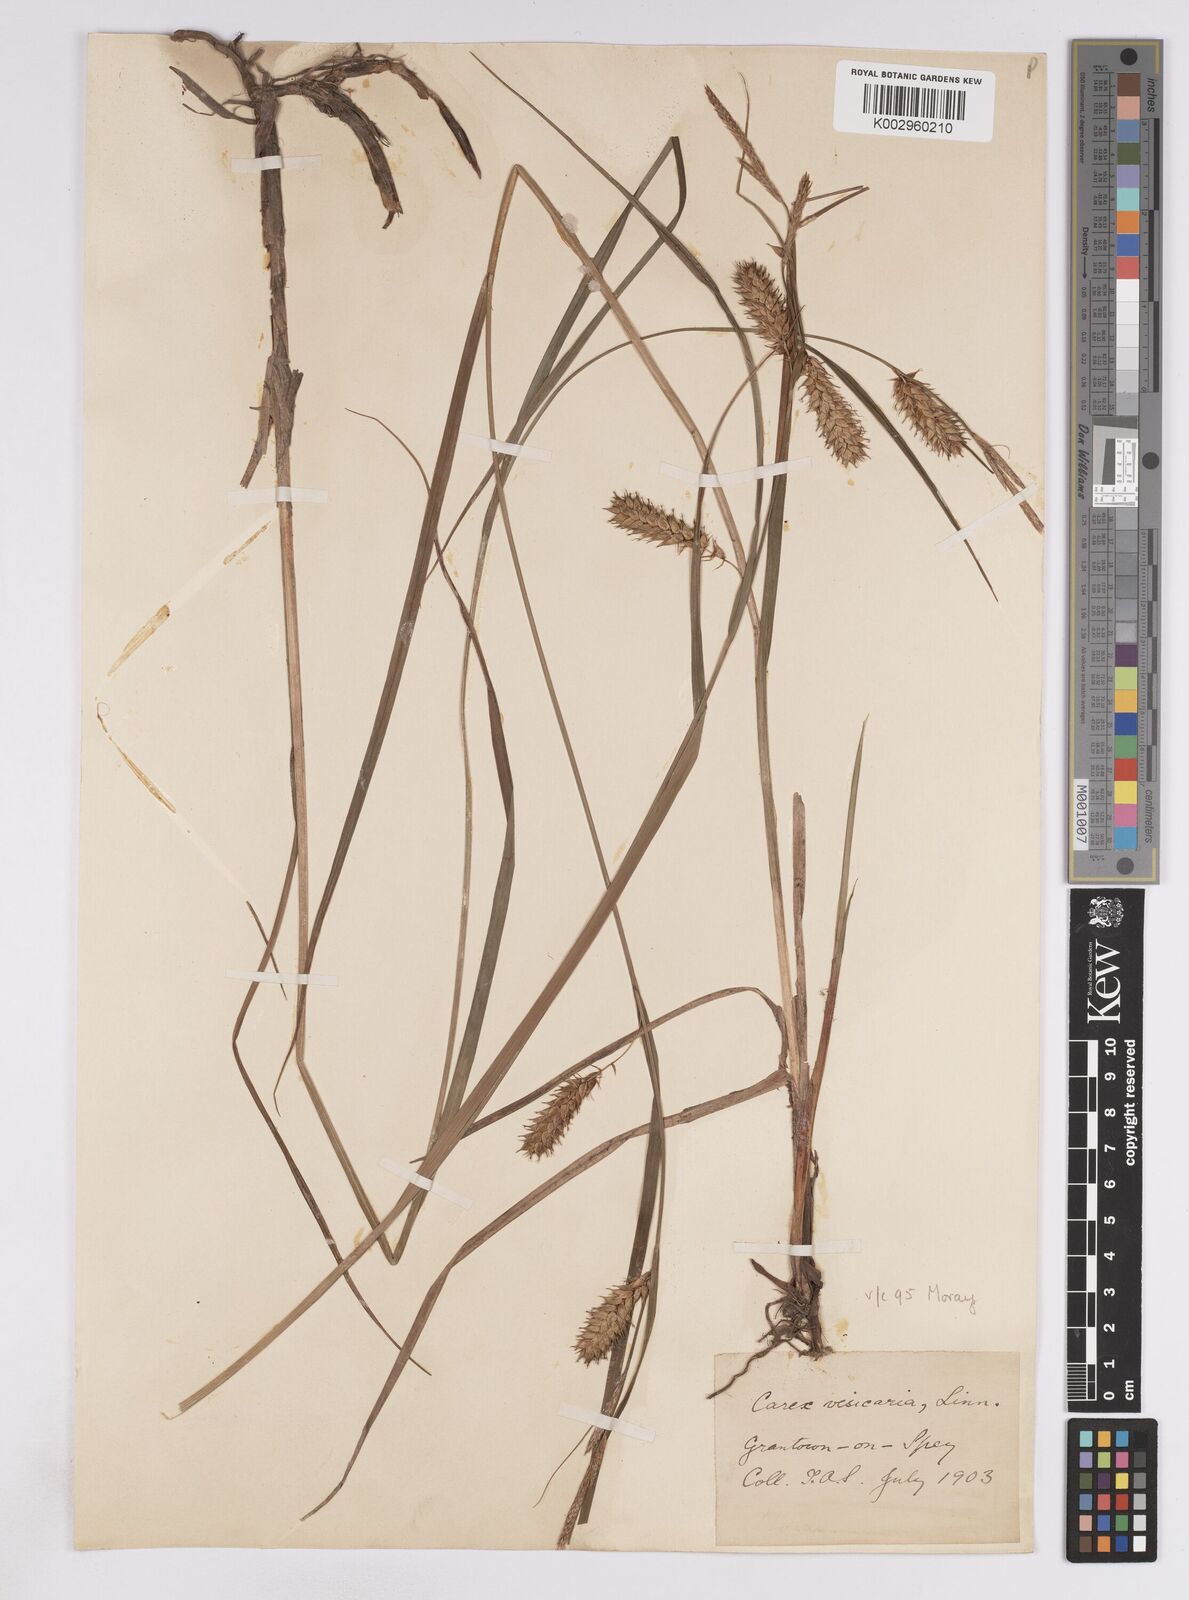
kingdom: Plantae
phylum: Tracheophyta
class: Liliopsida
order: Poales
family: Cyperaceae
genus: Carex
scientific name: Carex vesicaria
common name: Bladder-sedge
